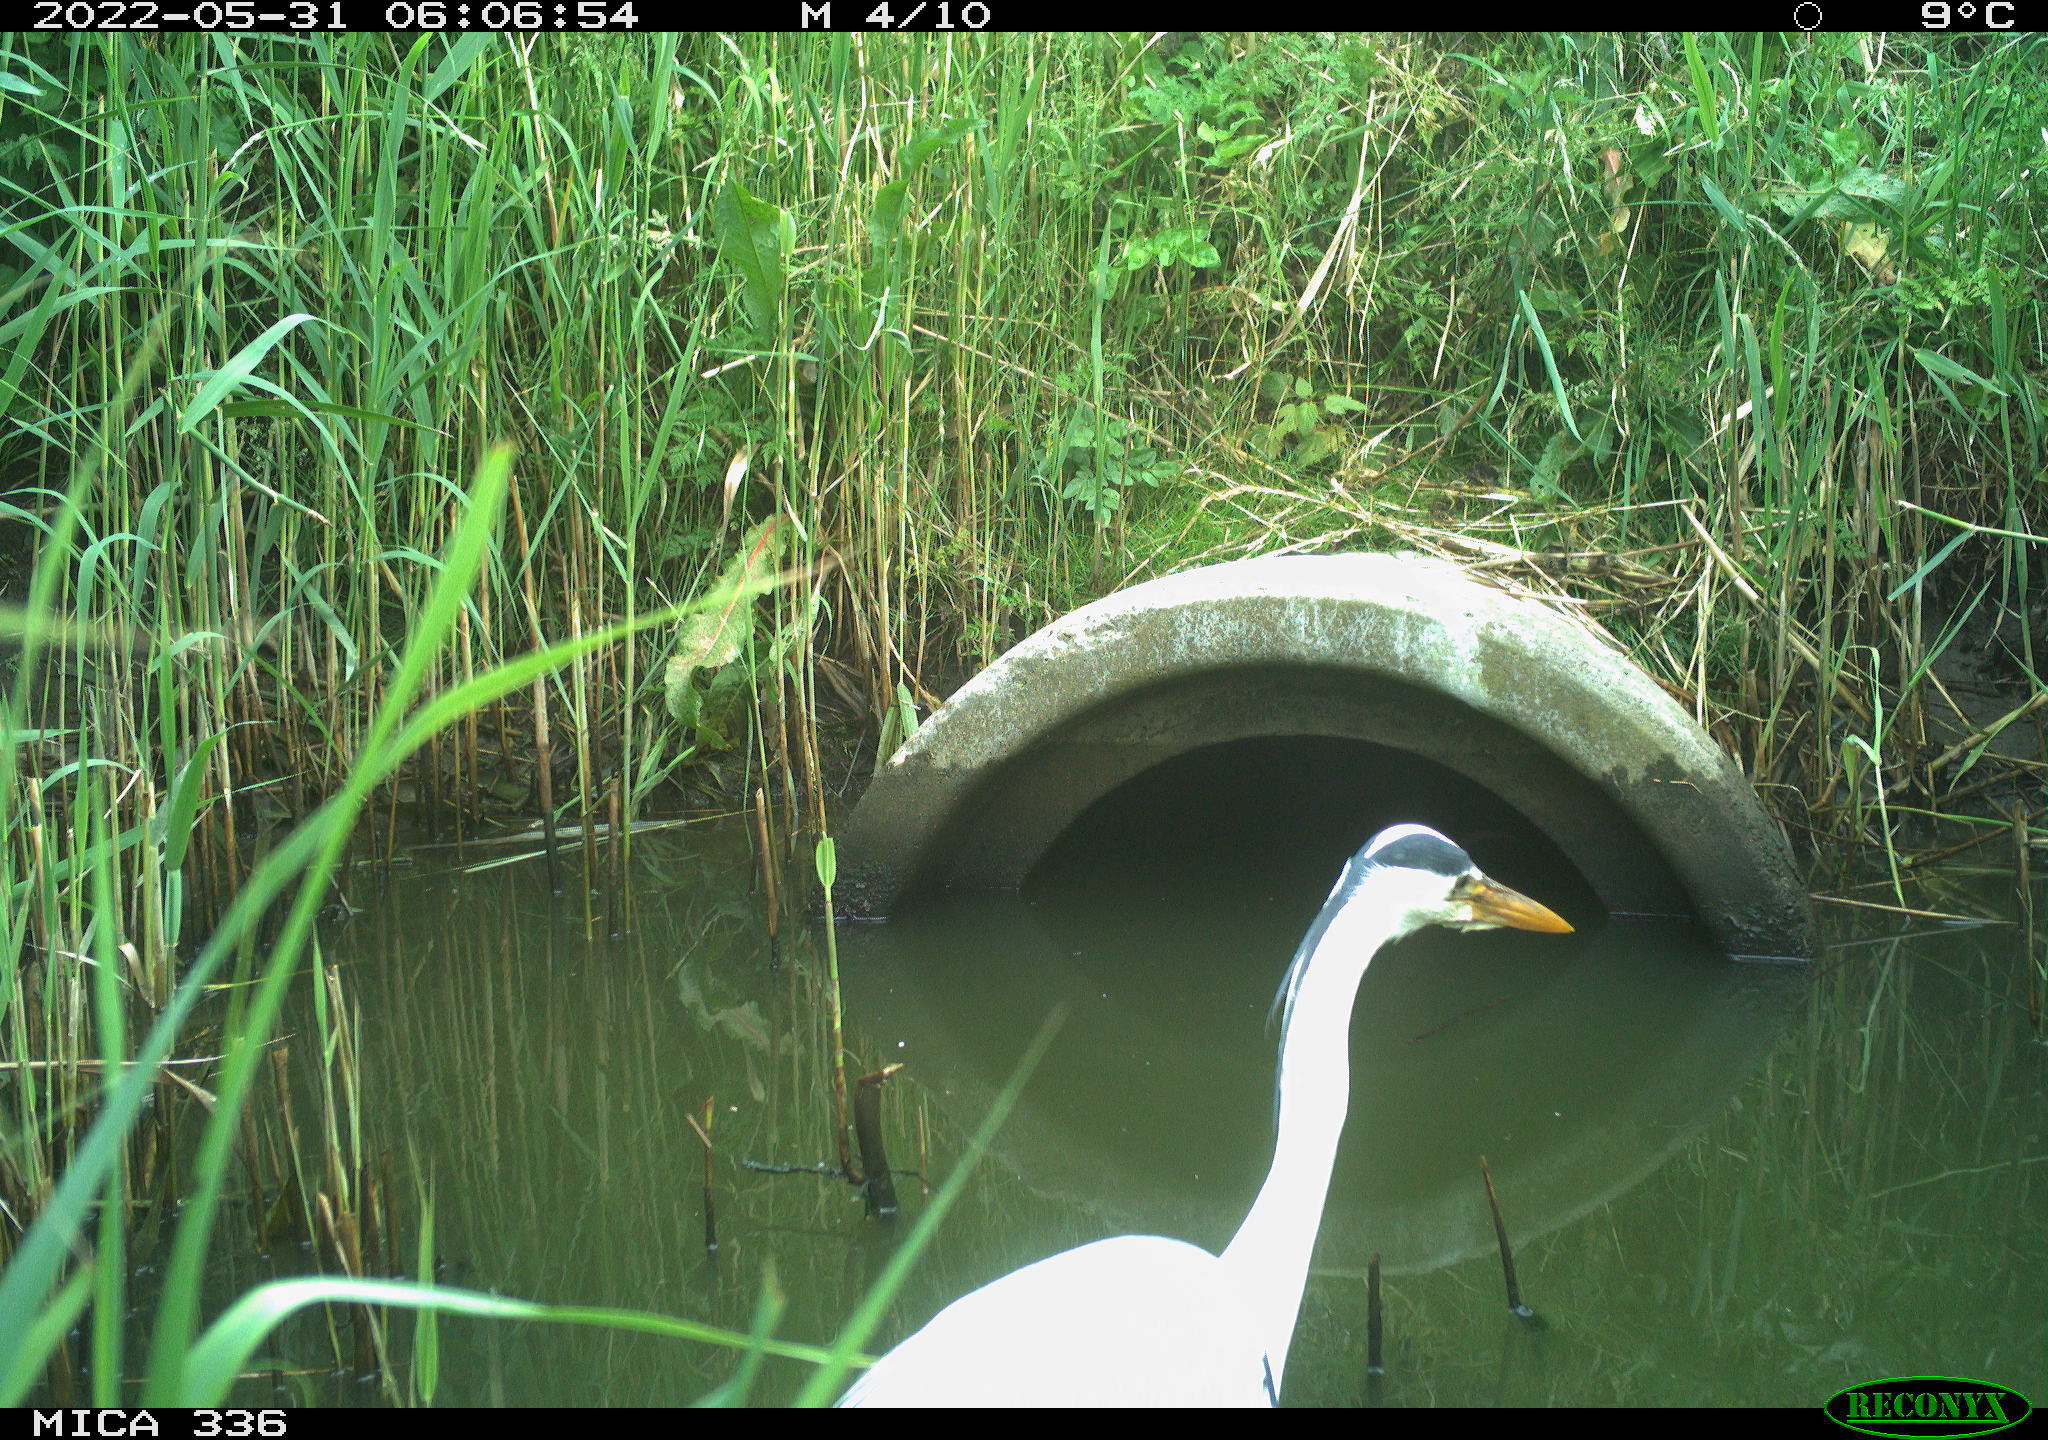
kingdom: Animalia
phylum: Chordata
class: Aves
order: Pelecaniformes
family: Ardeidae
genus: Ardea
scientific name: Ardea
